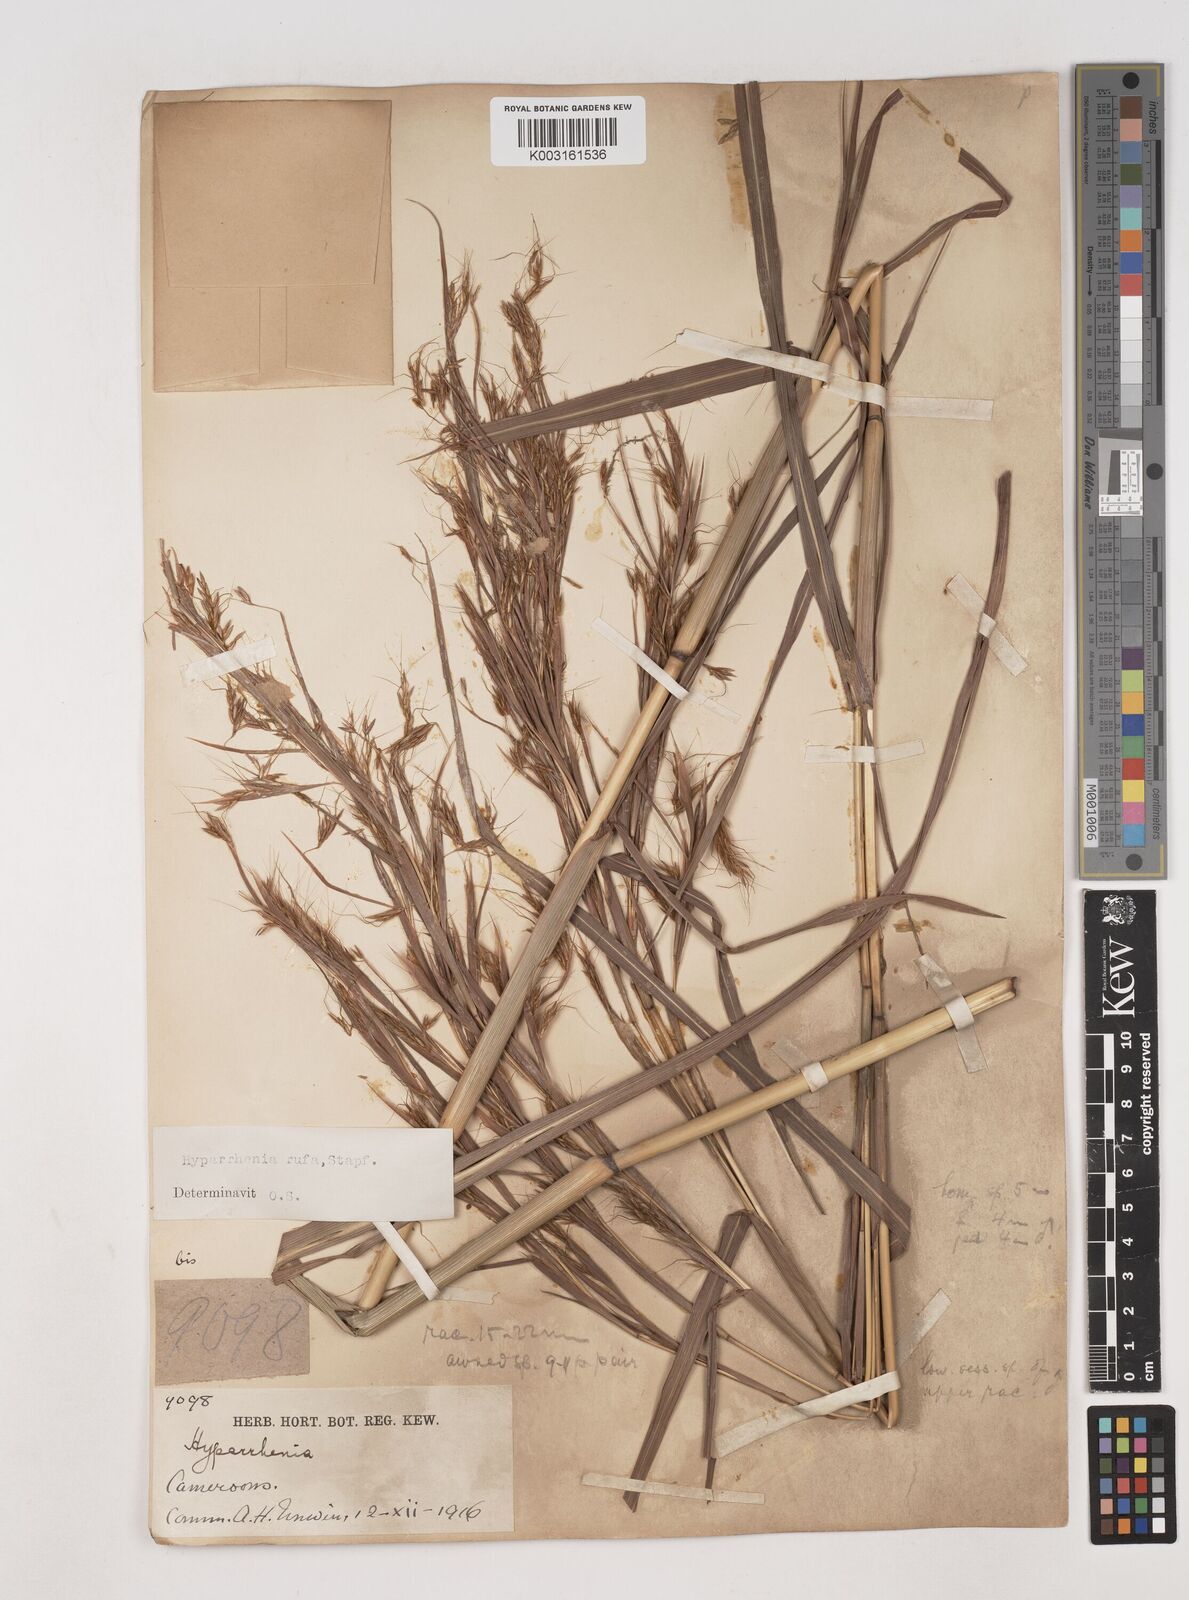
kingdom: Plantae
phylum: Tracheophyta
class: Liliopsida
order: Poales
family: Poaceae
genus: Hyparrhenia
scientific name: Hyparrhenia rufa
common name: Jaraguagrass
